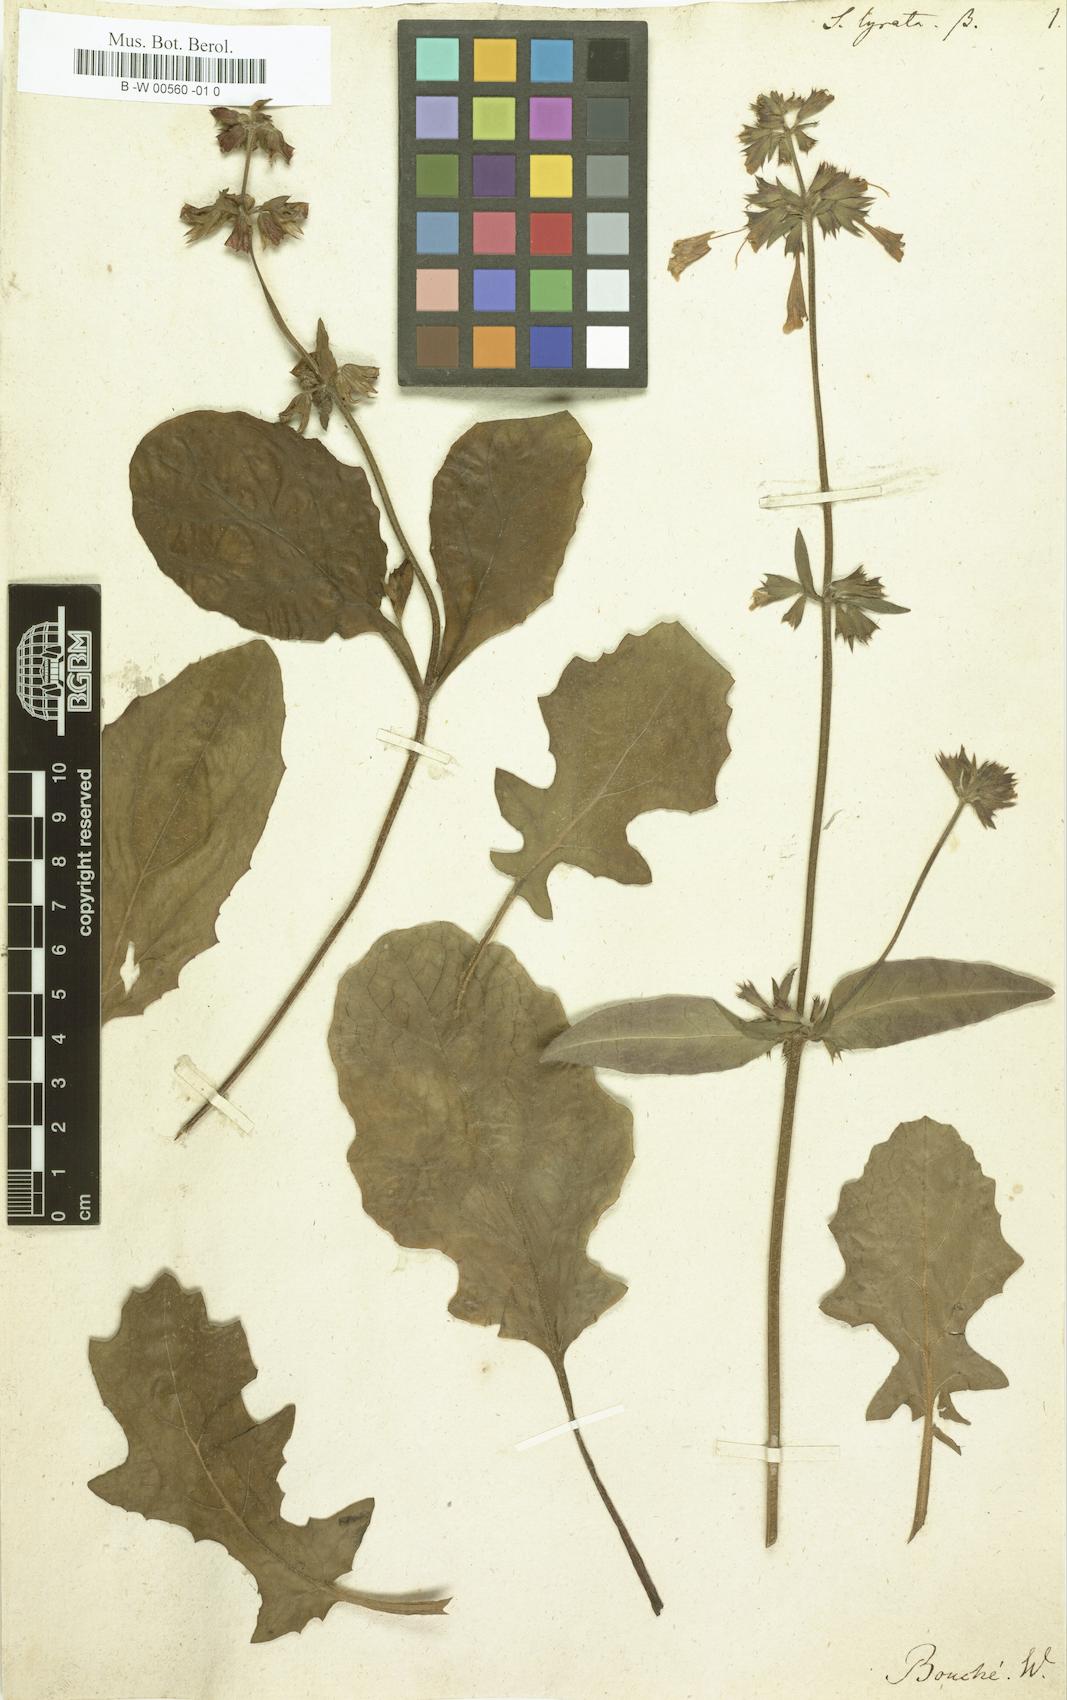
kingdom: Plantae
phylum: Tracheophyta
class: Magnoliopsida
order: Lamiales
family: Lamiaceae
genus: Salvia
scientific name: Salvia lyrata
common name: Cancerweed
